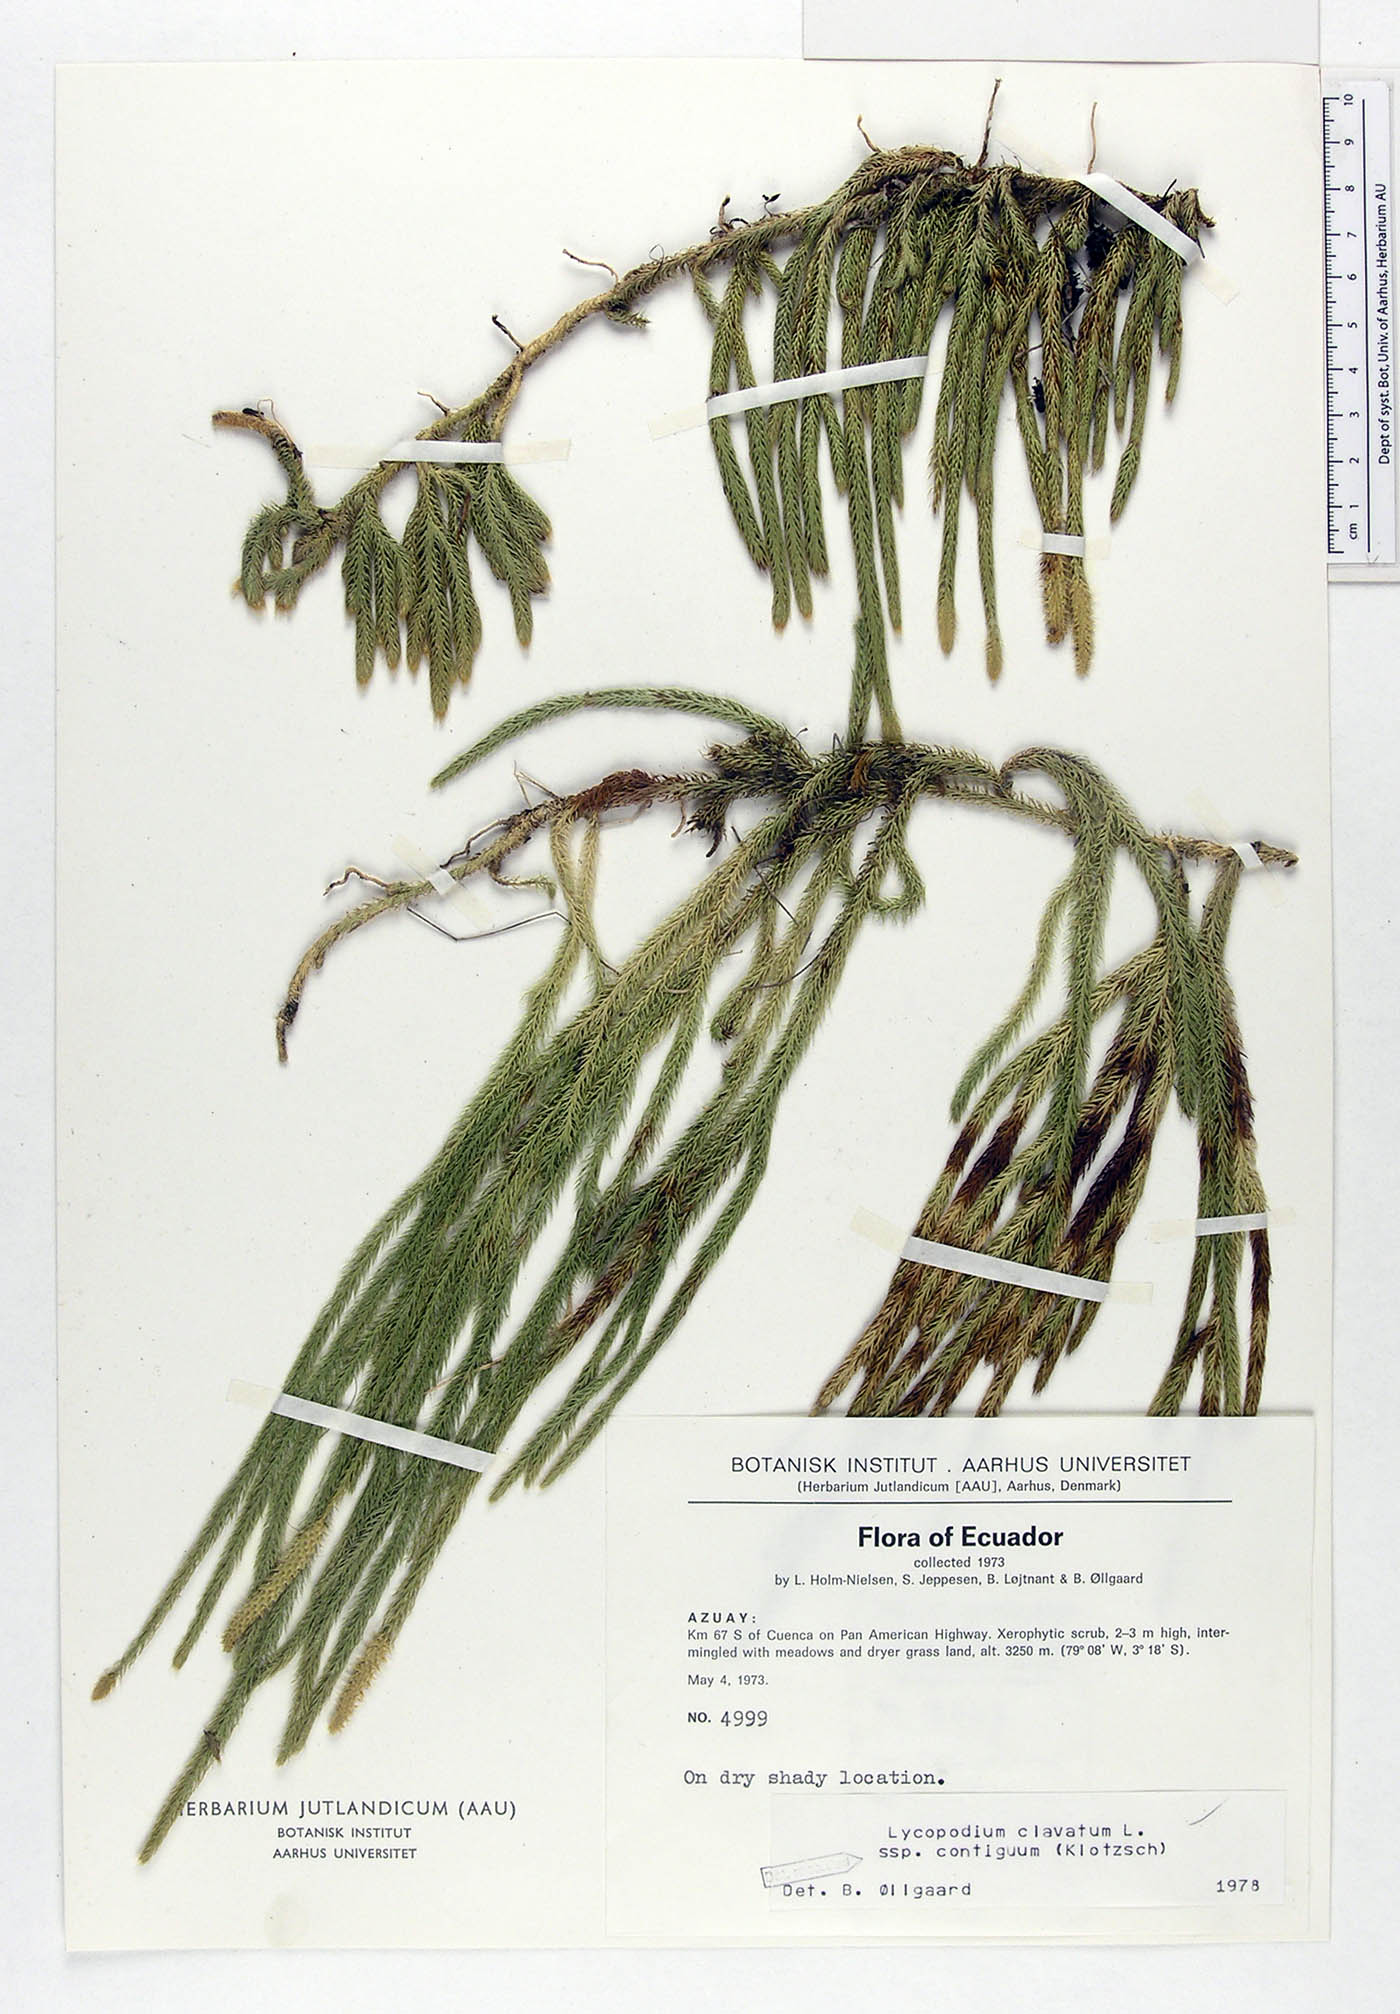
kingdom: Plantae
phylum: Tracheophyta
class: Lycopodiopsida
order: Lycopodiales
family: Lycopodiaceae
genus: Lycopodium
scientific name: Lycopodium clavatum
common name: Stag's-horn clubmoss
